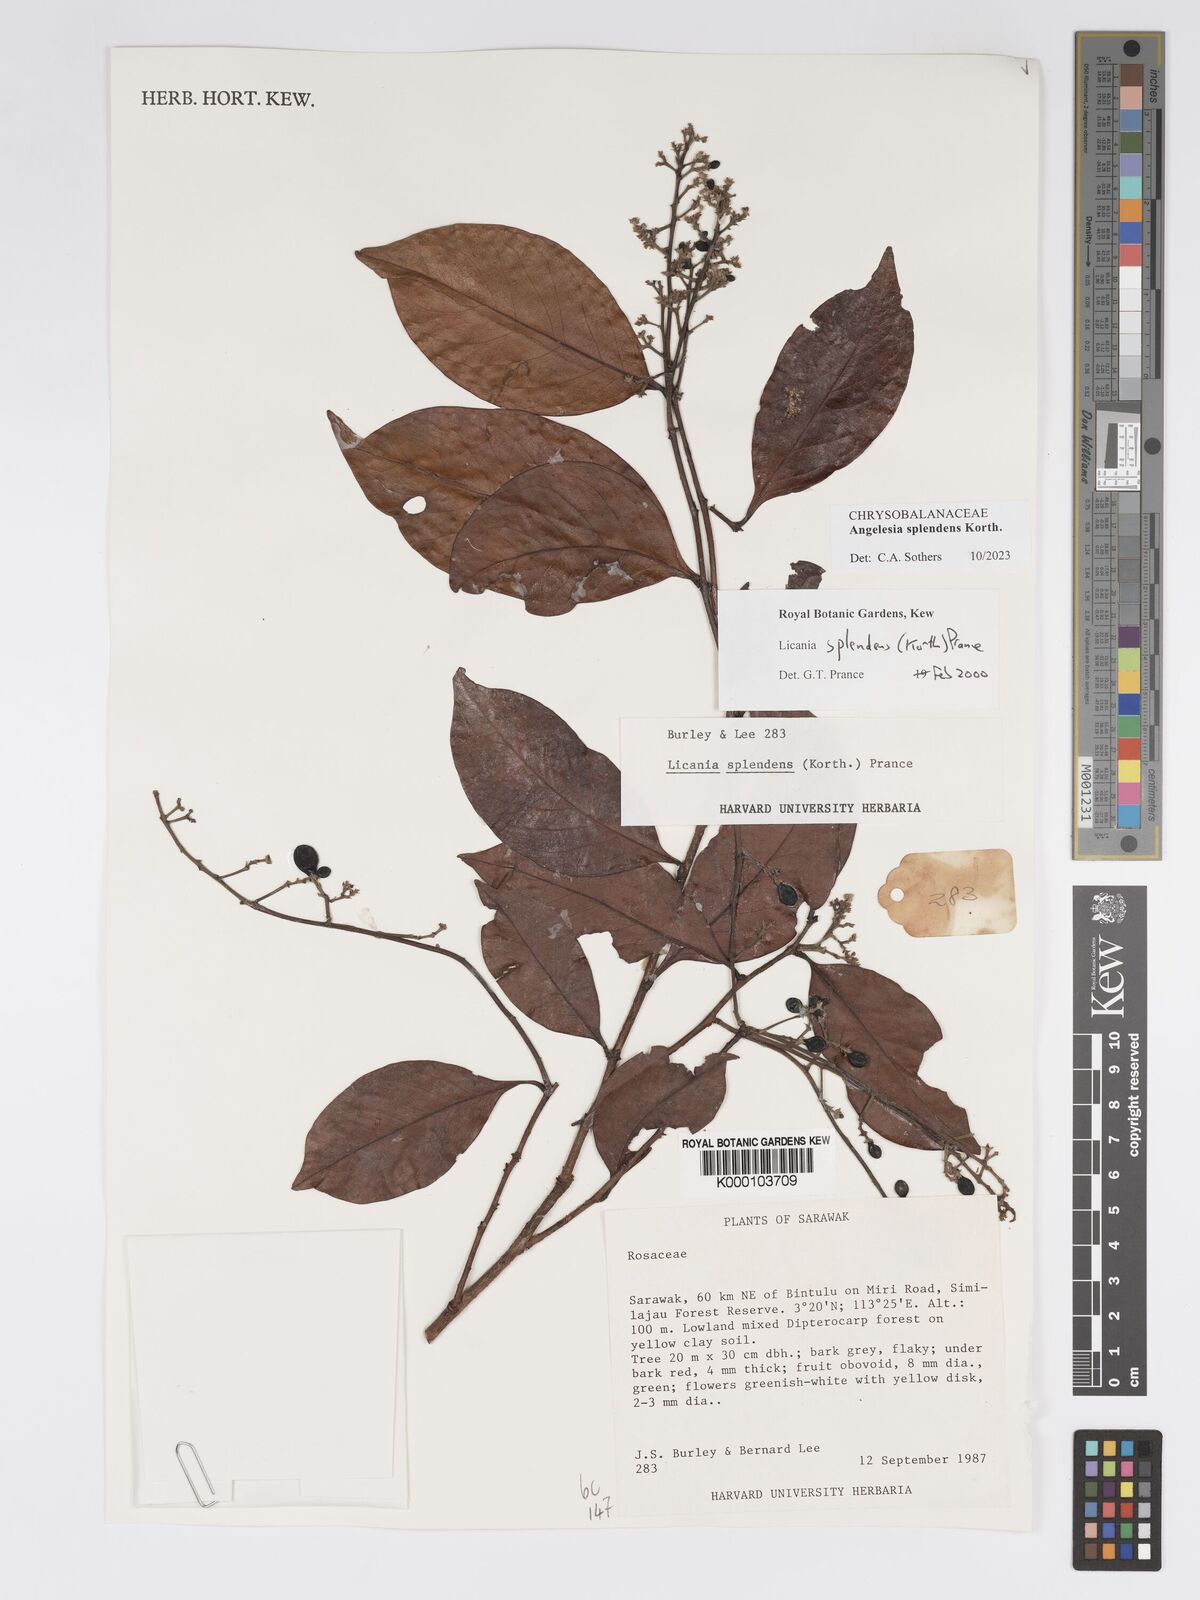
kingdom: Plantae
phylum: Tracheophyta
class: Magnoliopsida
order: Malpighiales
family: Chrysobalanaceae
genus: Angelesia
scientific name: Angelesia splendens
